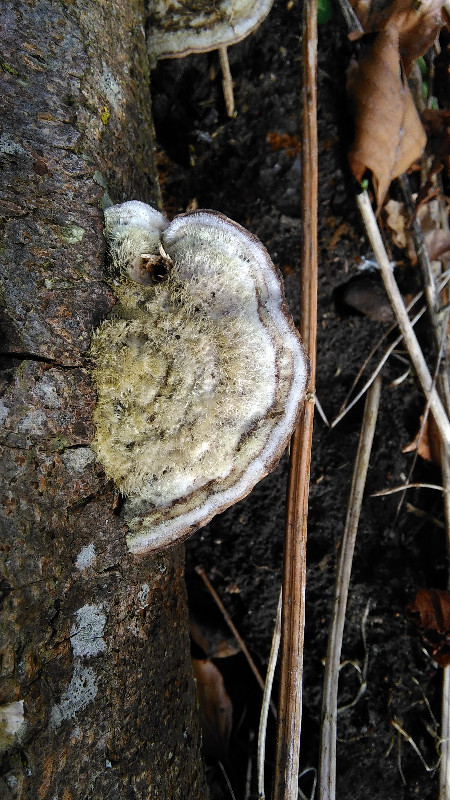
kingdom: Fungi
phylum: Basidiomycota
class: Agaricomycetes
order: Polyporales
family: Polyporaceae
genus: Trametes
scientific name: Trametes hirsuta
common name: håret læderporesvamp
